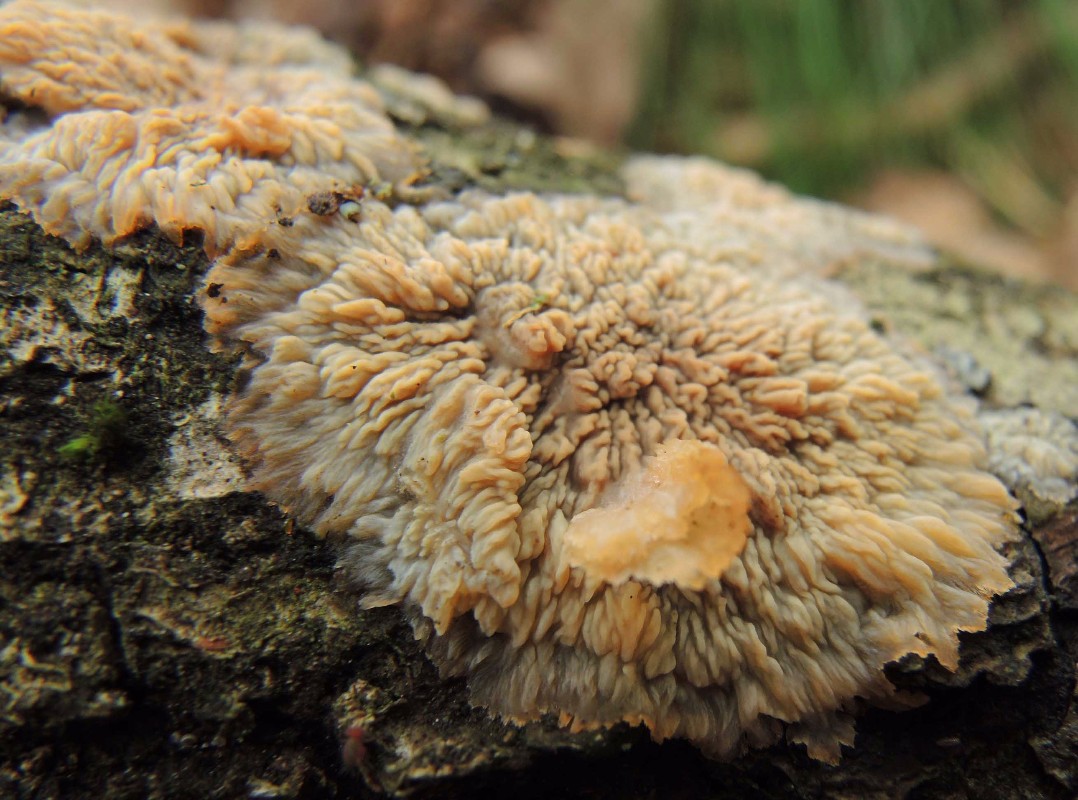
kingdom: Fungi
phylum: Basidiomycota
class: Agaricomycetes
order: Polyporales
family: Meruliaceae
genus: Phlebia
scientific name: Phlebia radiata
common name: stråle-åresvamp
